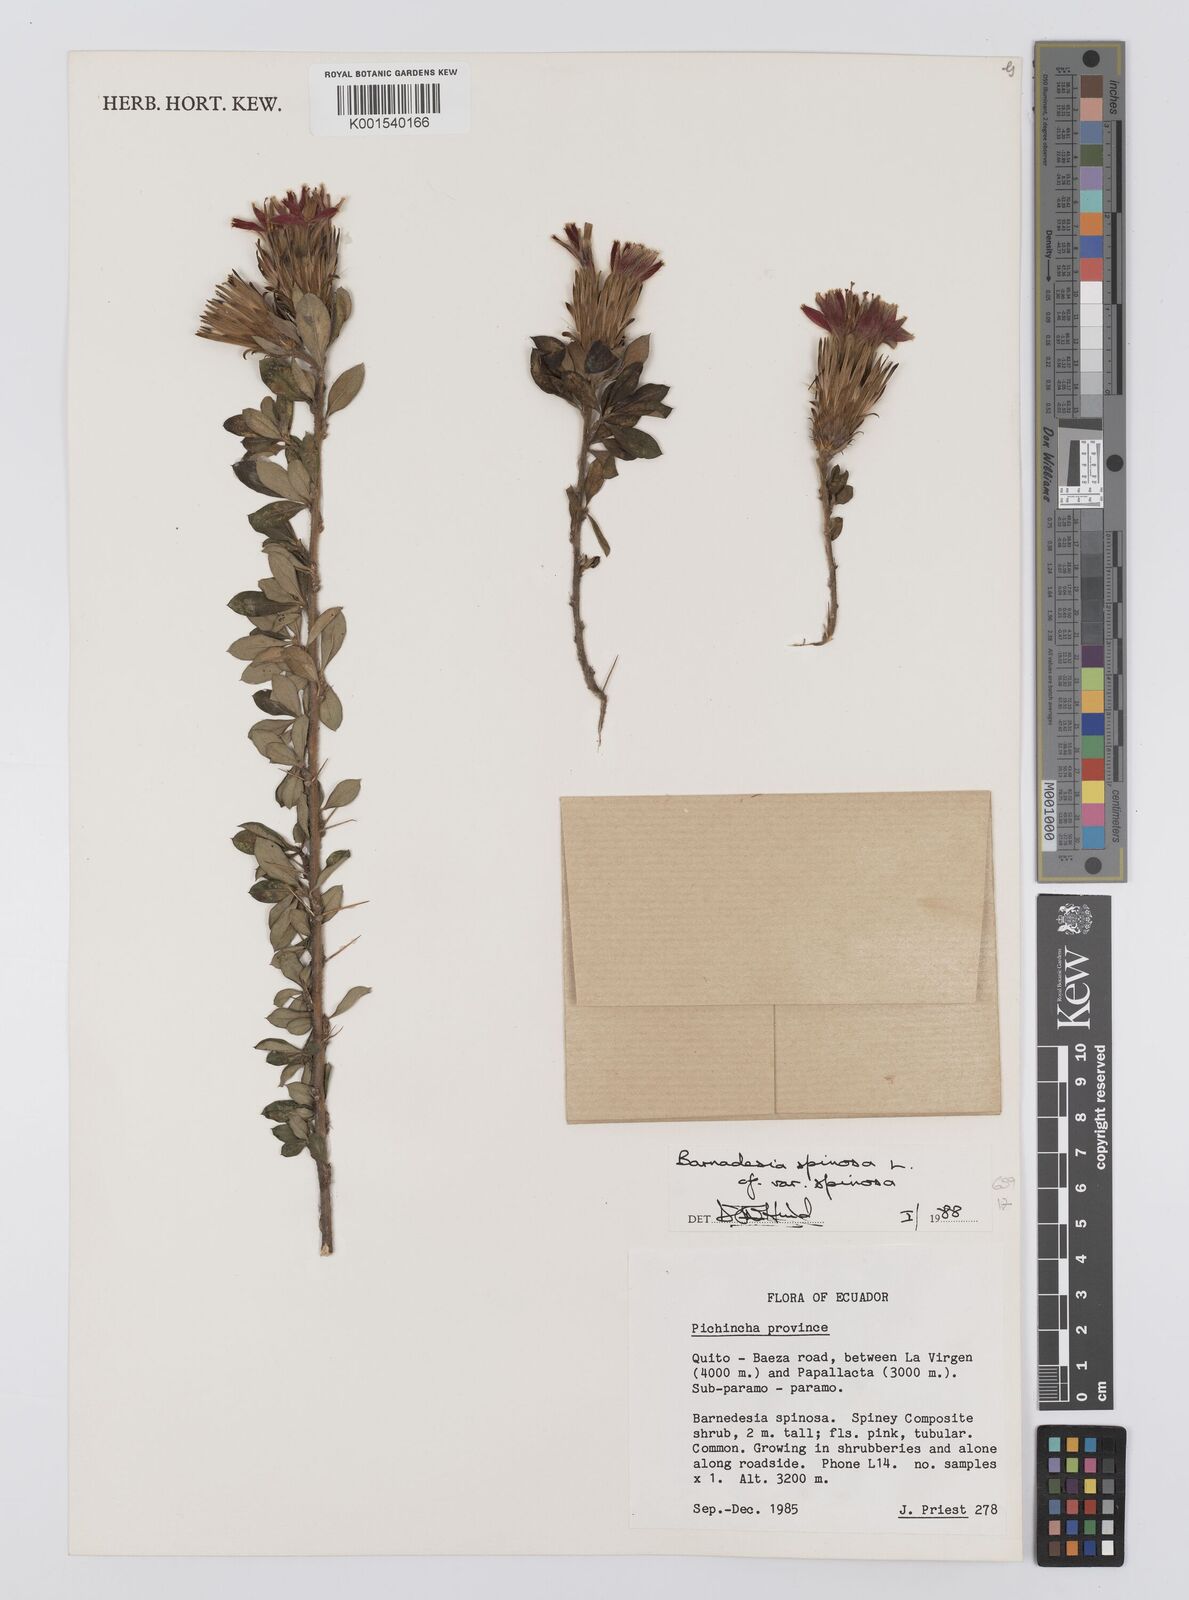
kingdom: Plantae
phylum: Tracheophyta
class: Magnoliopsida
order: Asterales
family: Asteraceae
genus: Barnadesia
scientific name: Barnadesia spinosa
